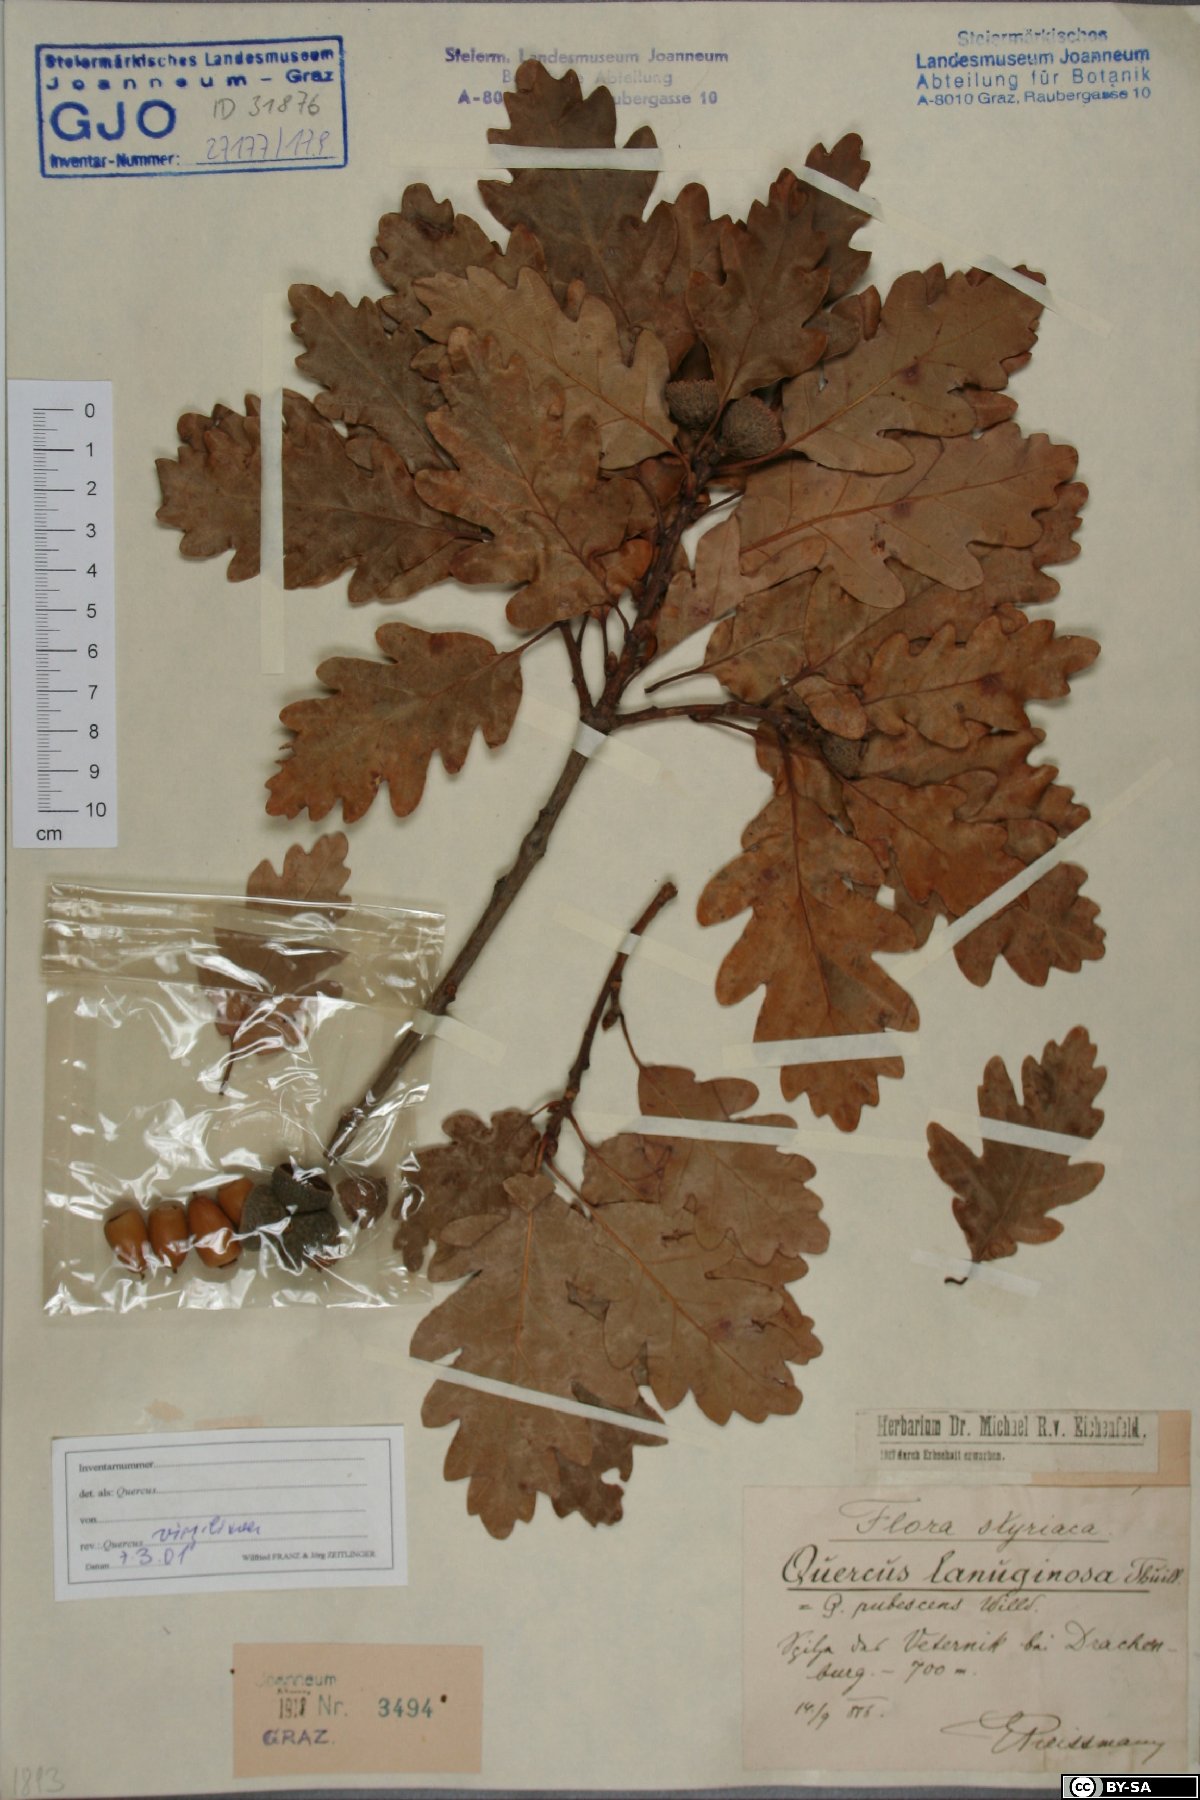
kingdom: Plantae
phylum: Tracheophyta
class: Magnoliopsida
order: Fagales
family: Fagaceae
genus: Quercus
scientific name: Quercus pubescens
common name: Downy oak
